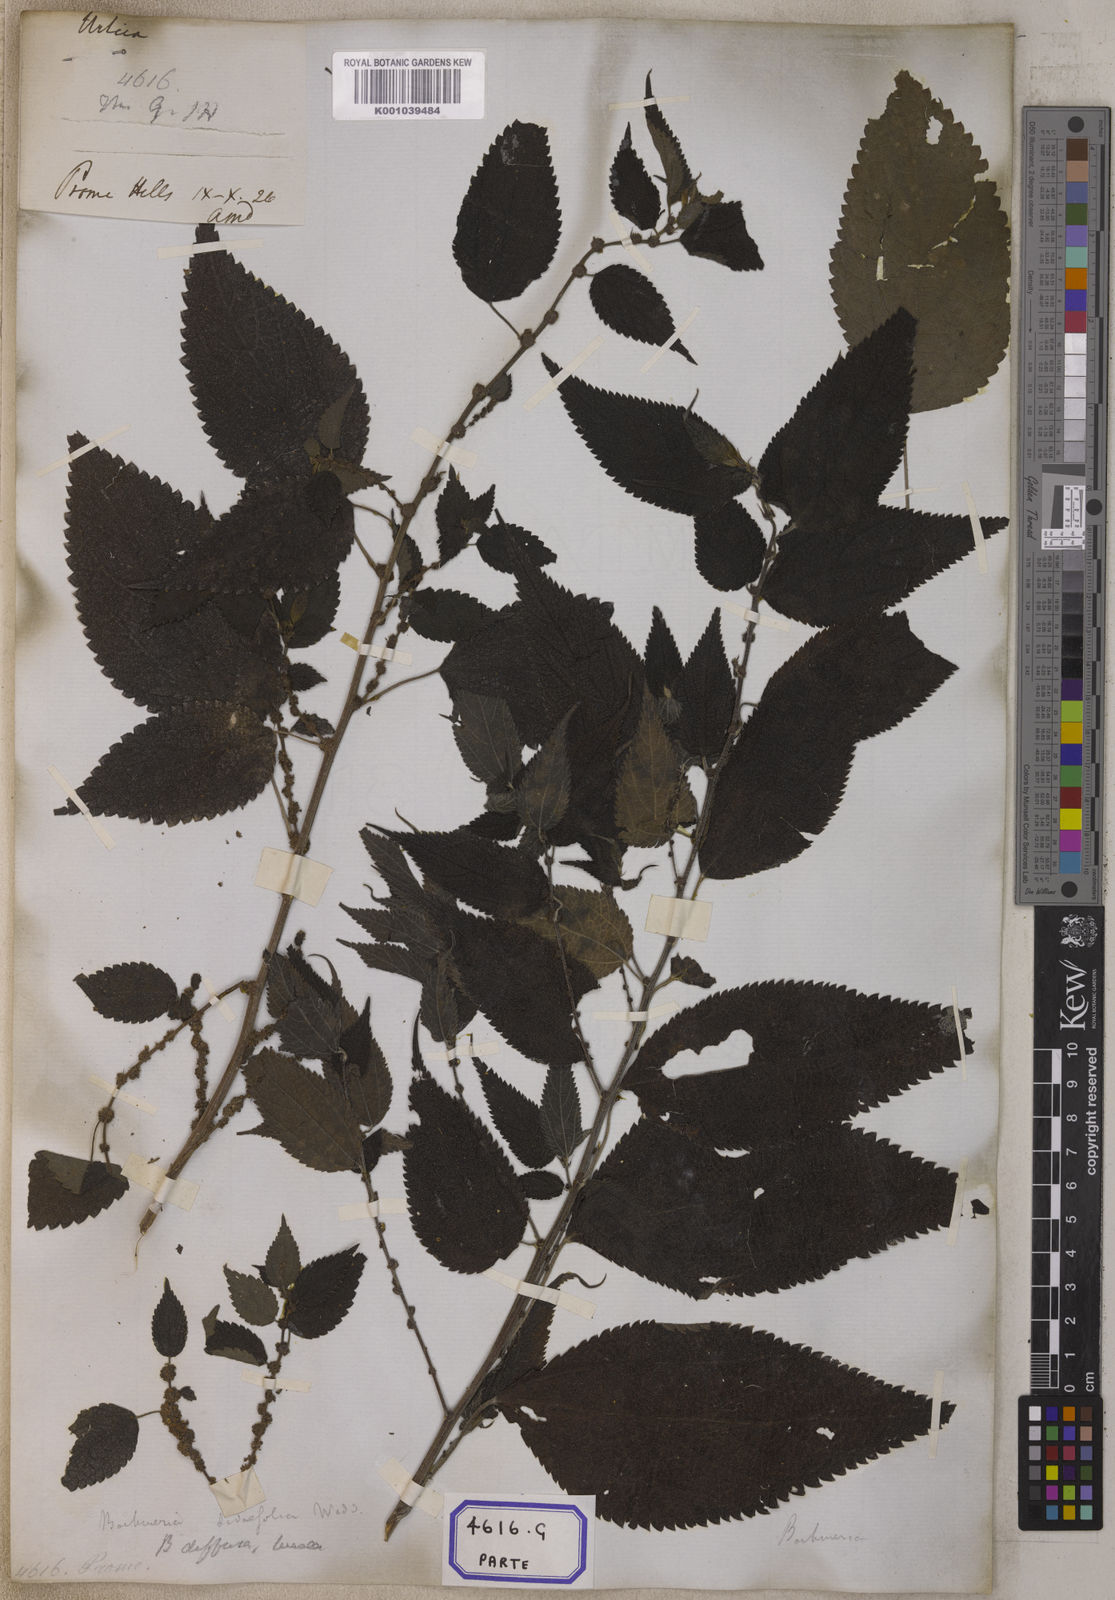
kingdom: Plantae
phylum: Tracheophyta
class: Magnoliopsida
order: Rosales
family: Urticaceae
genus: Pouzolzia
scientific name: Pouzolzia sanguinea
